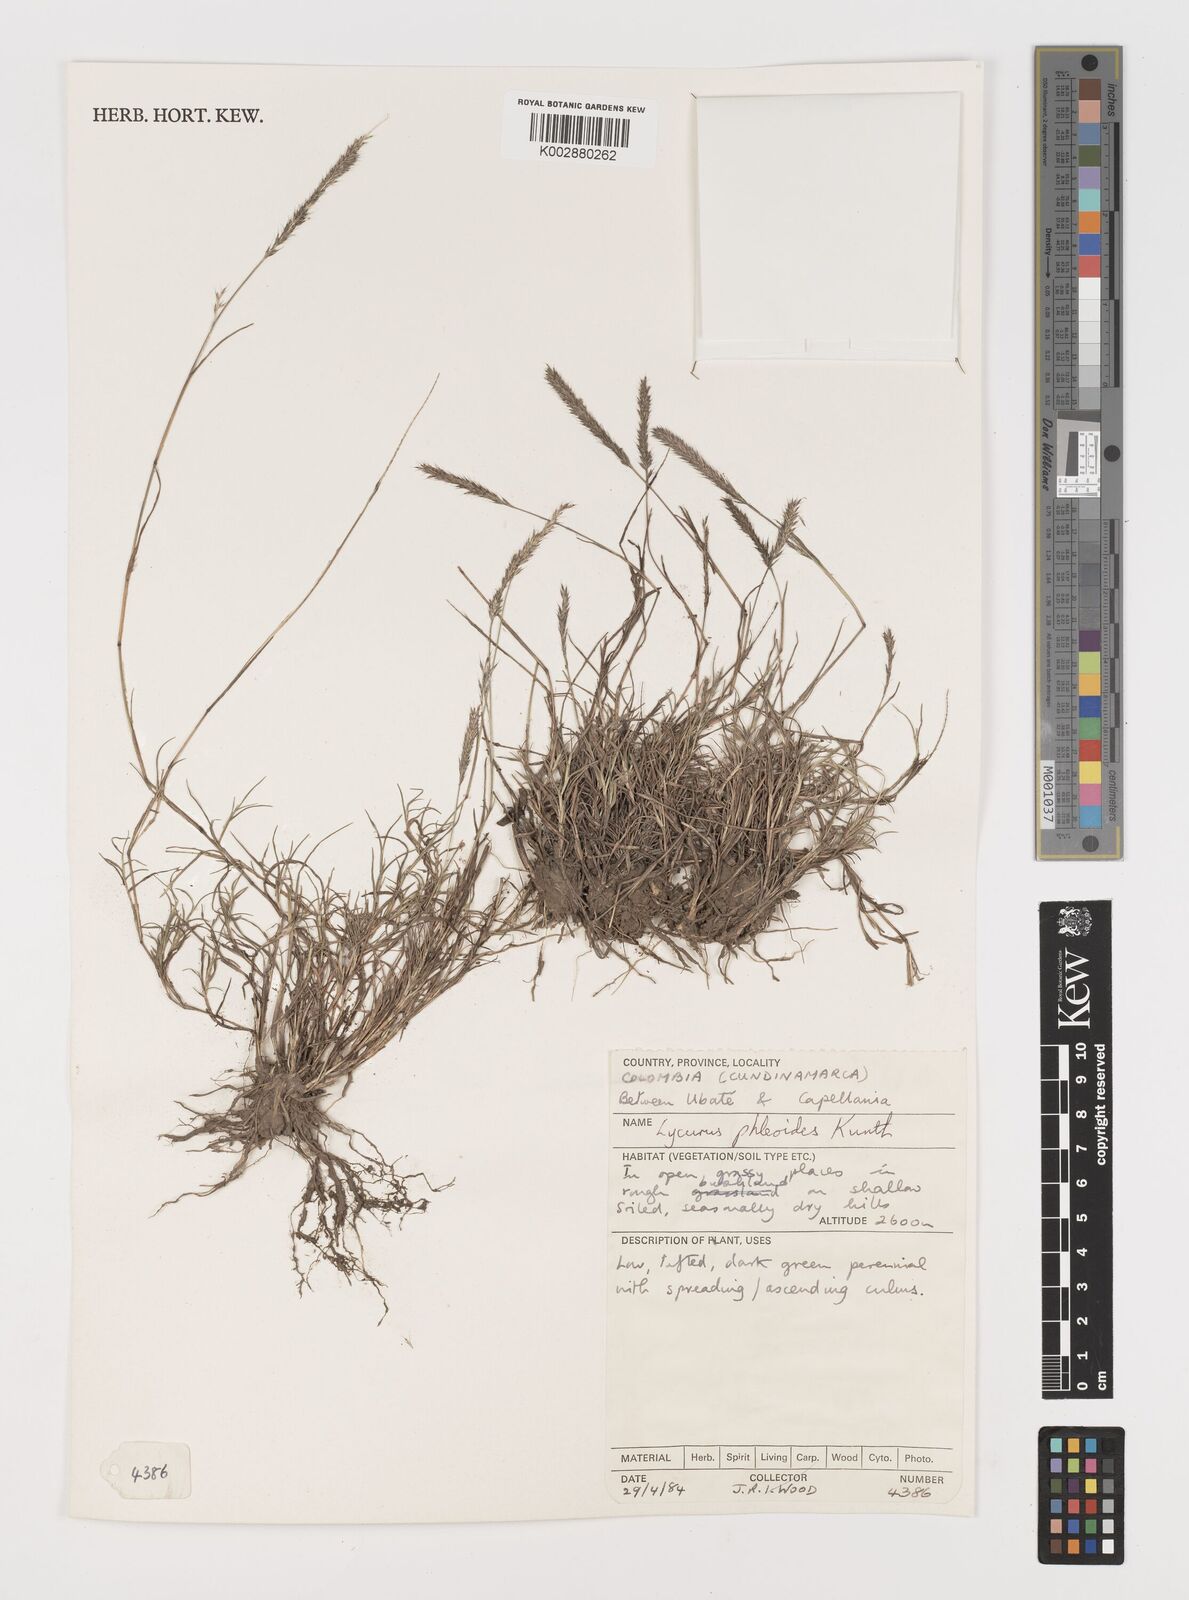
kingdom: Plantae
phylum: Tracheophyta
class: Liliopsida
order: Poales
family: Poaceae
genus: Muhlenbergia
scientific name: Muhlenbergia phalaroides
